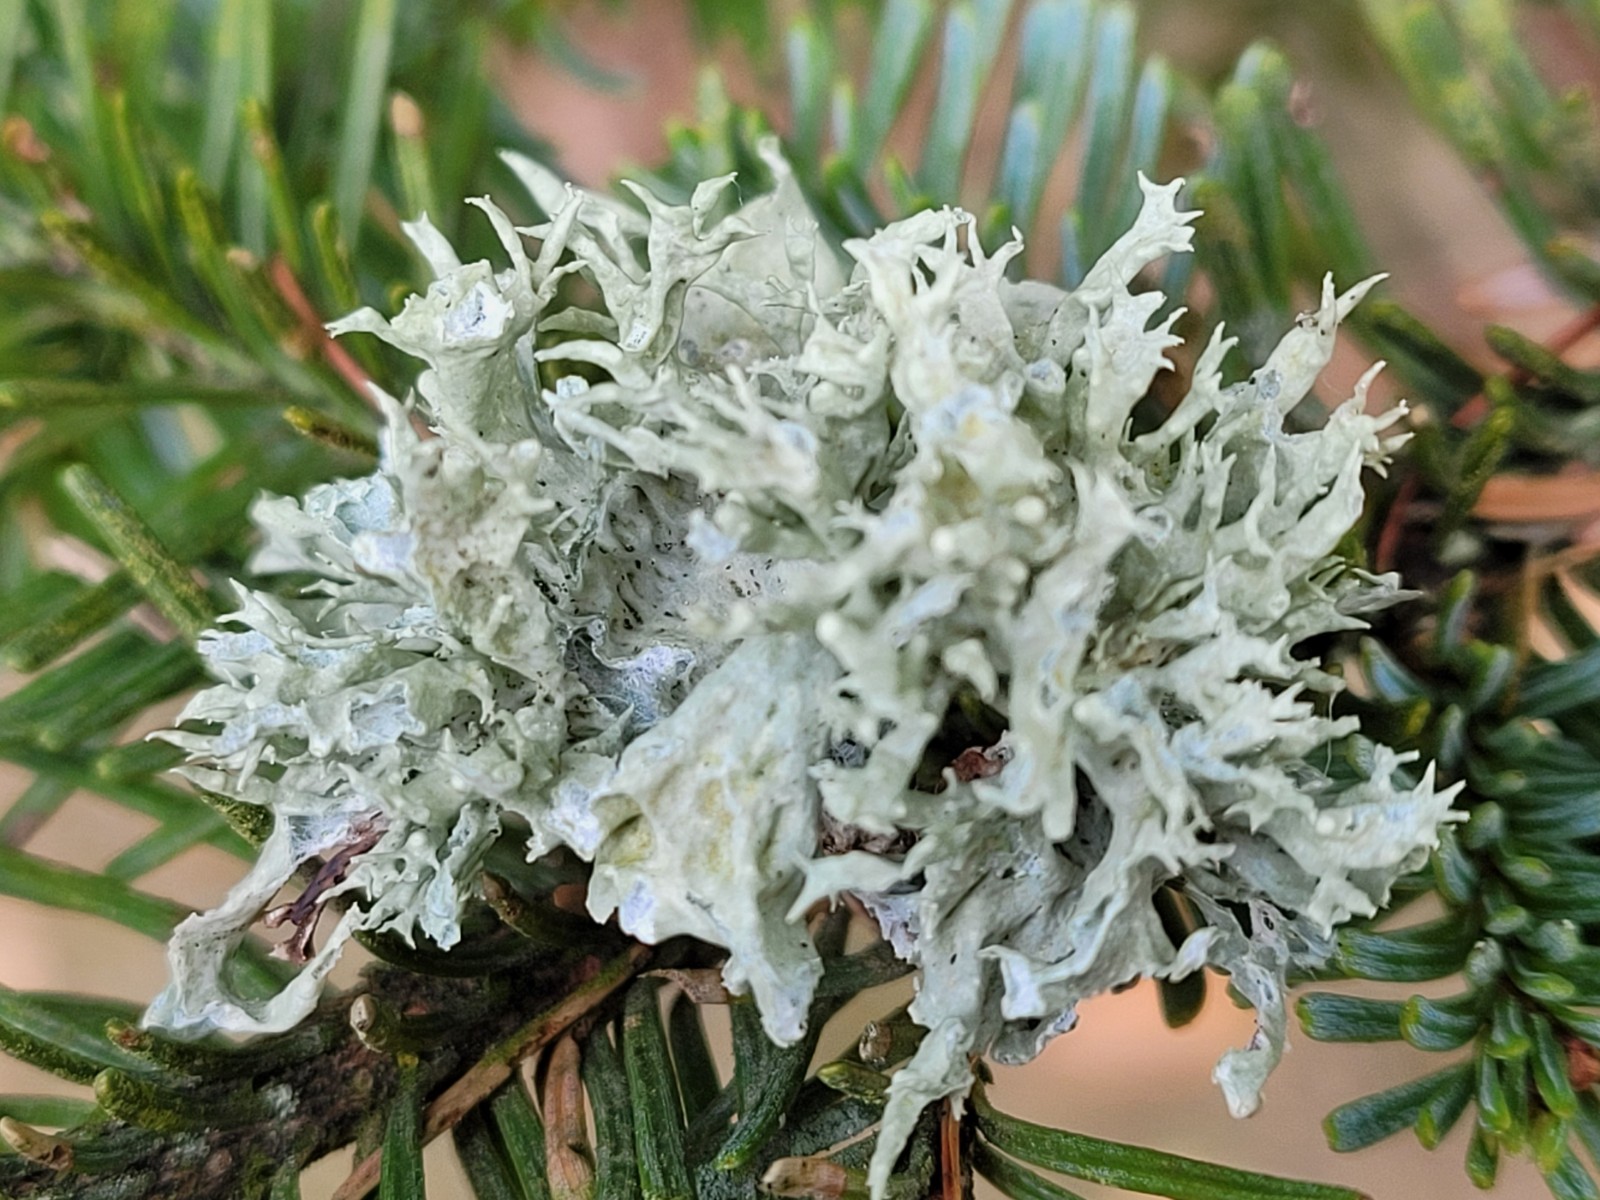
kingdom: Fungi
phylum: Ascomycota
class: Lecanoromycetes
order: Lecanorales
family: Ramalinaceae
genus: Ramalina
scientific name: Ramalina fastigiata
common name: tue-grenlav
